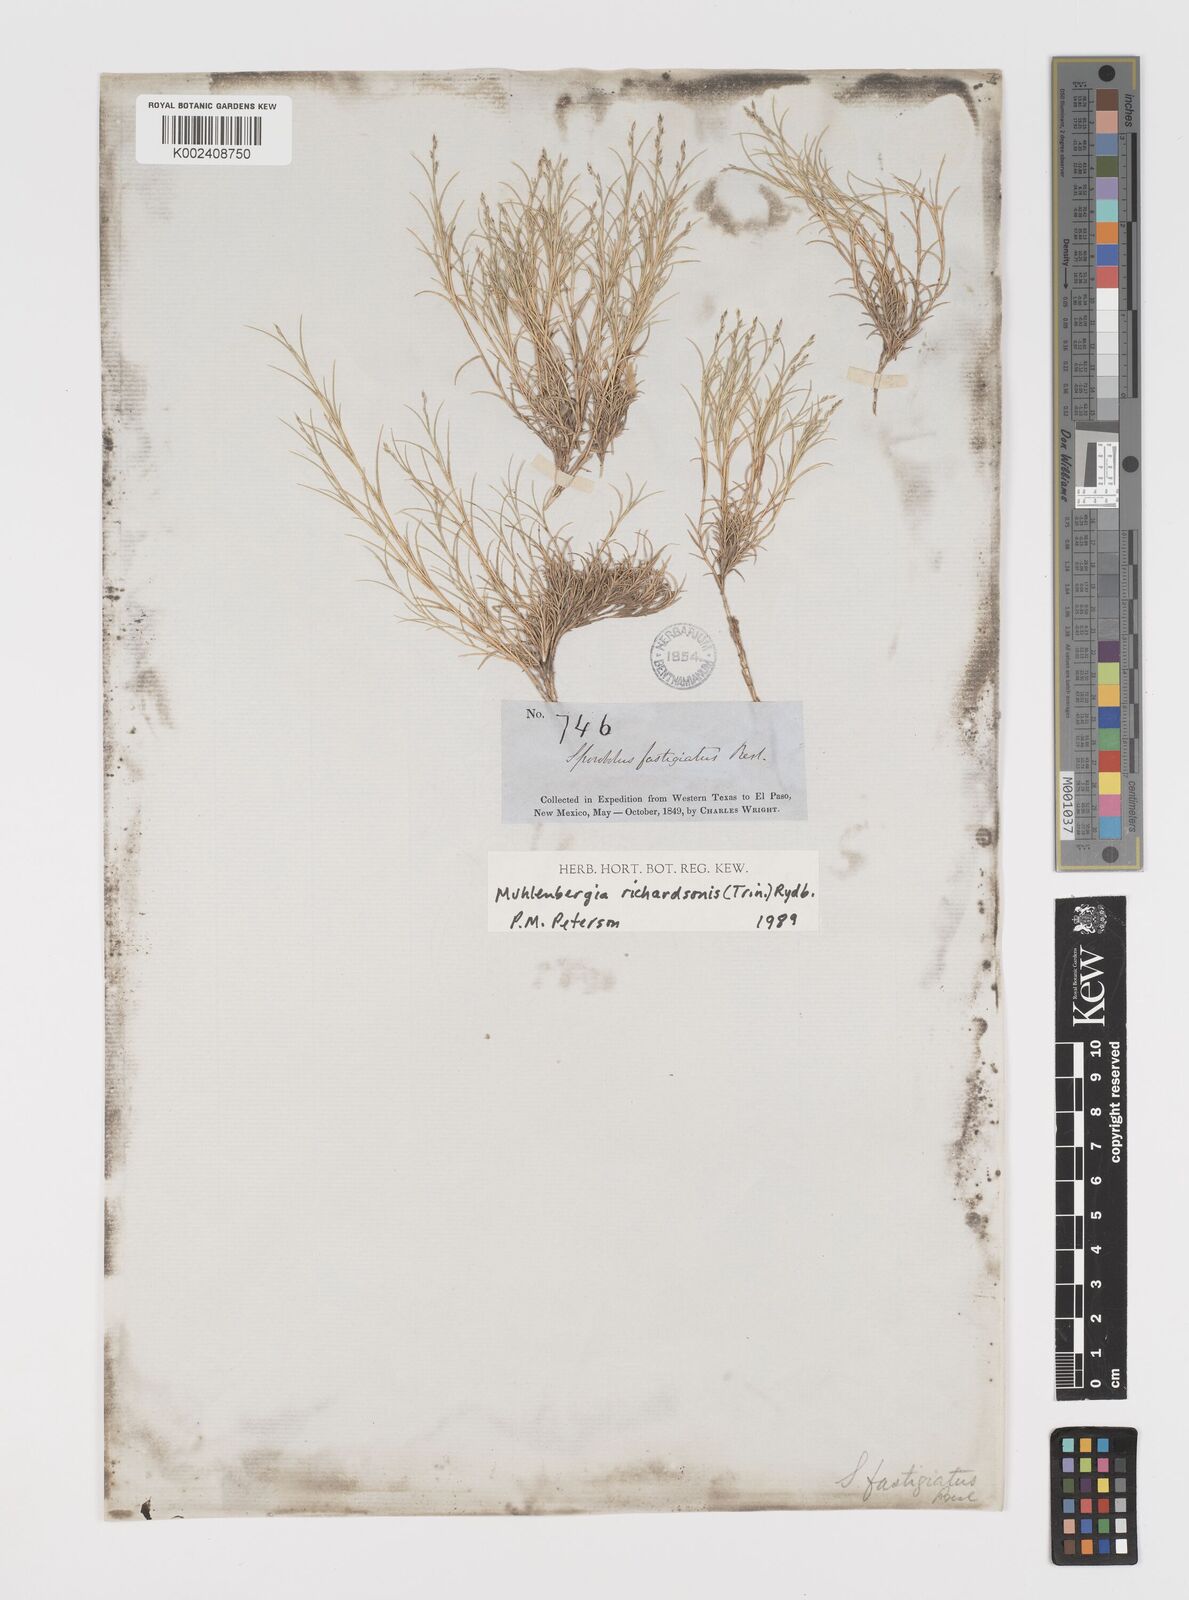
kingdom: Plantae
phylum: Tracheophyta
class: Liliopsida
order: Poales
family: Poaceae
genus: Muhlenbergia
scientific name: Muhlenbergia richardsonis
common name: Mat muhly
